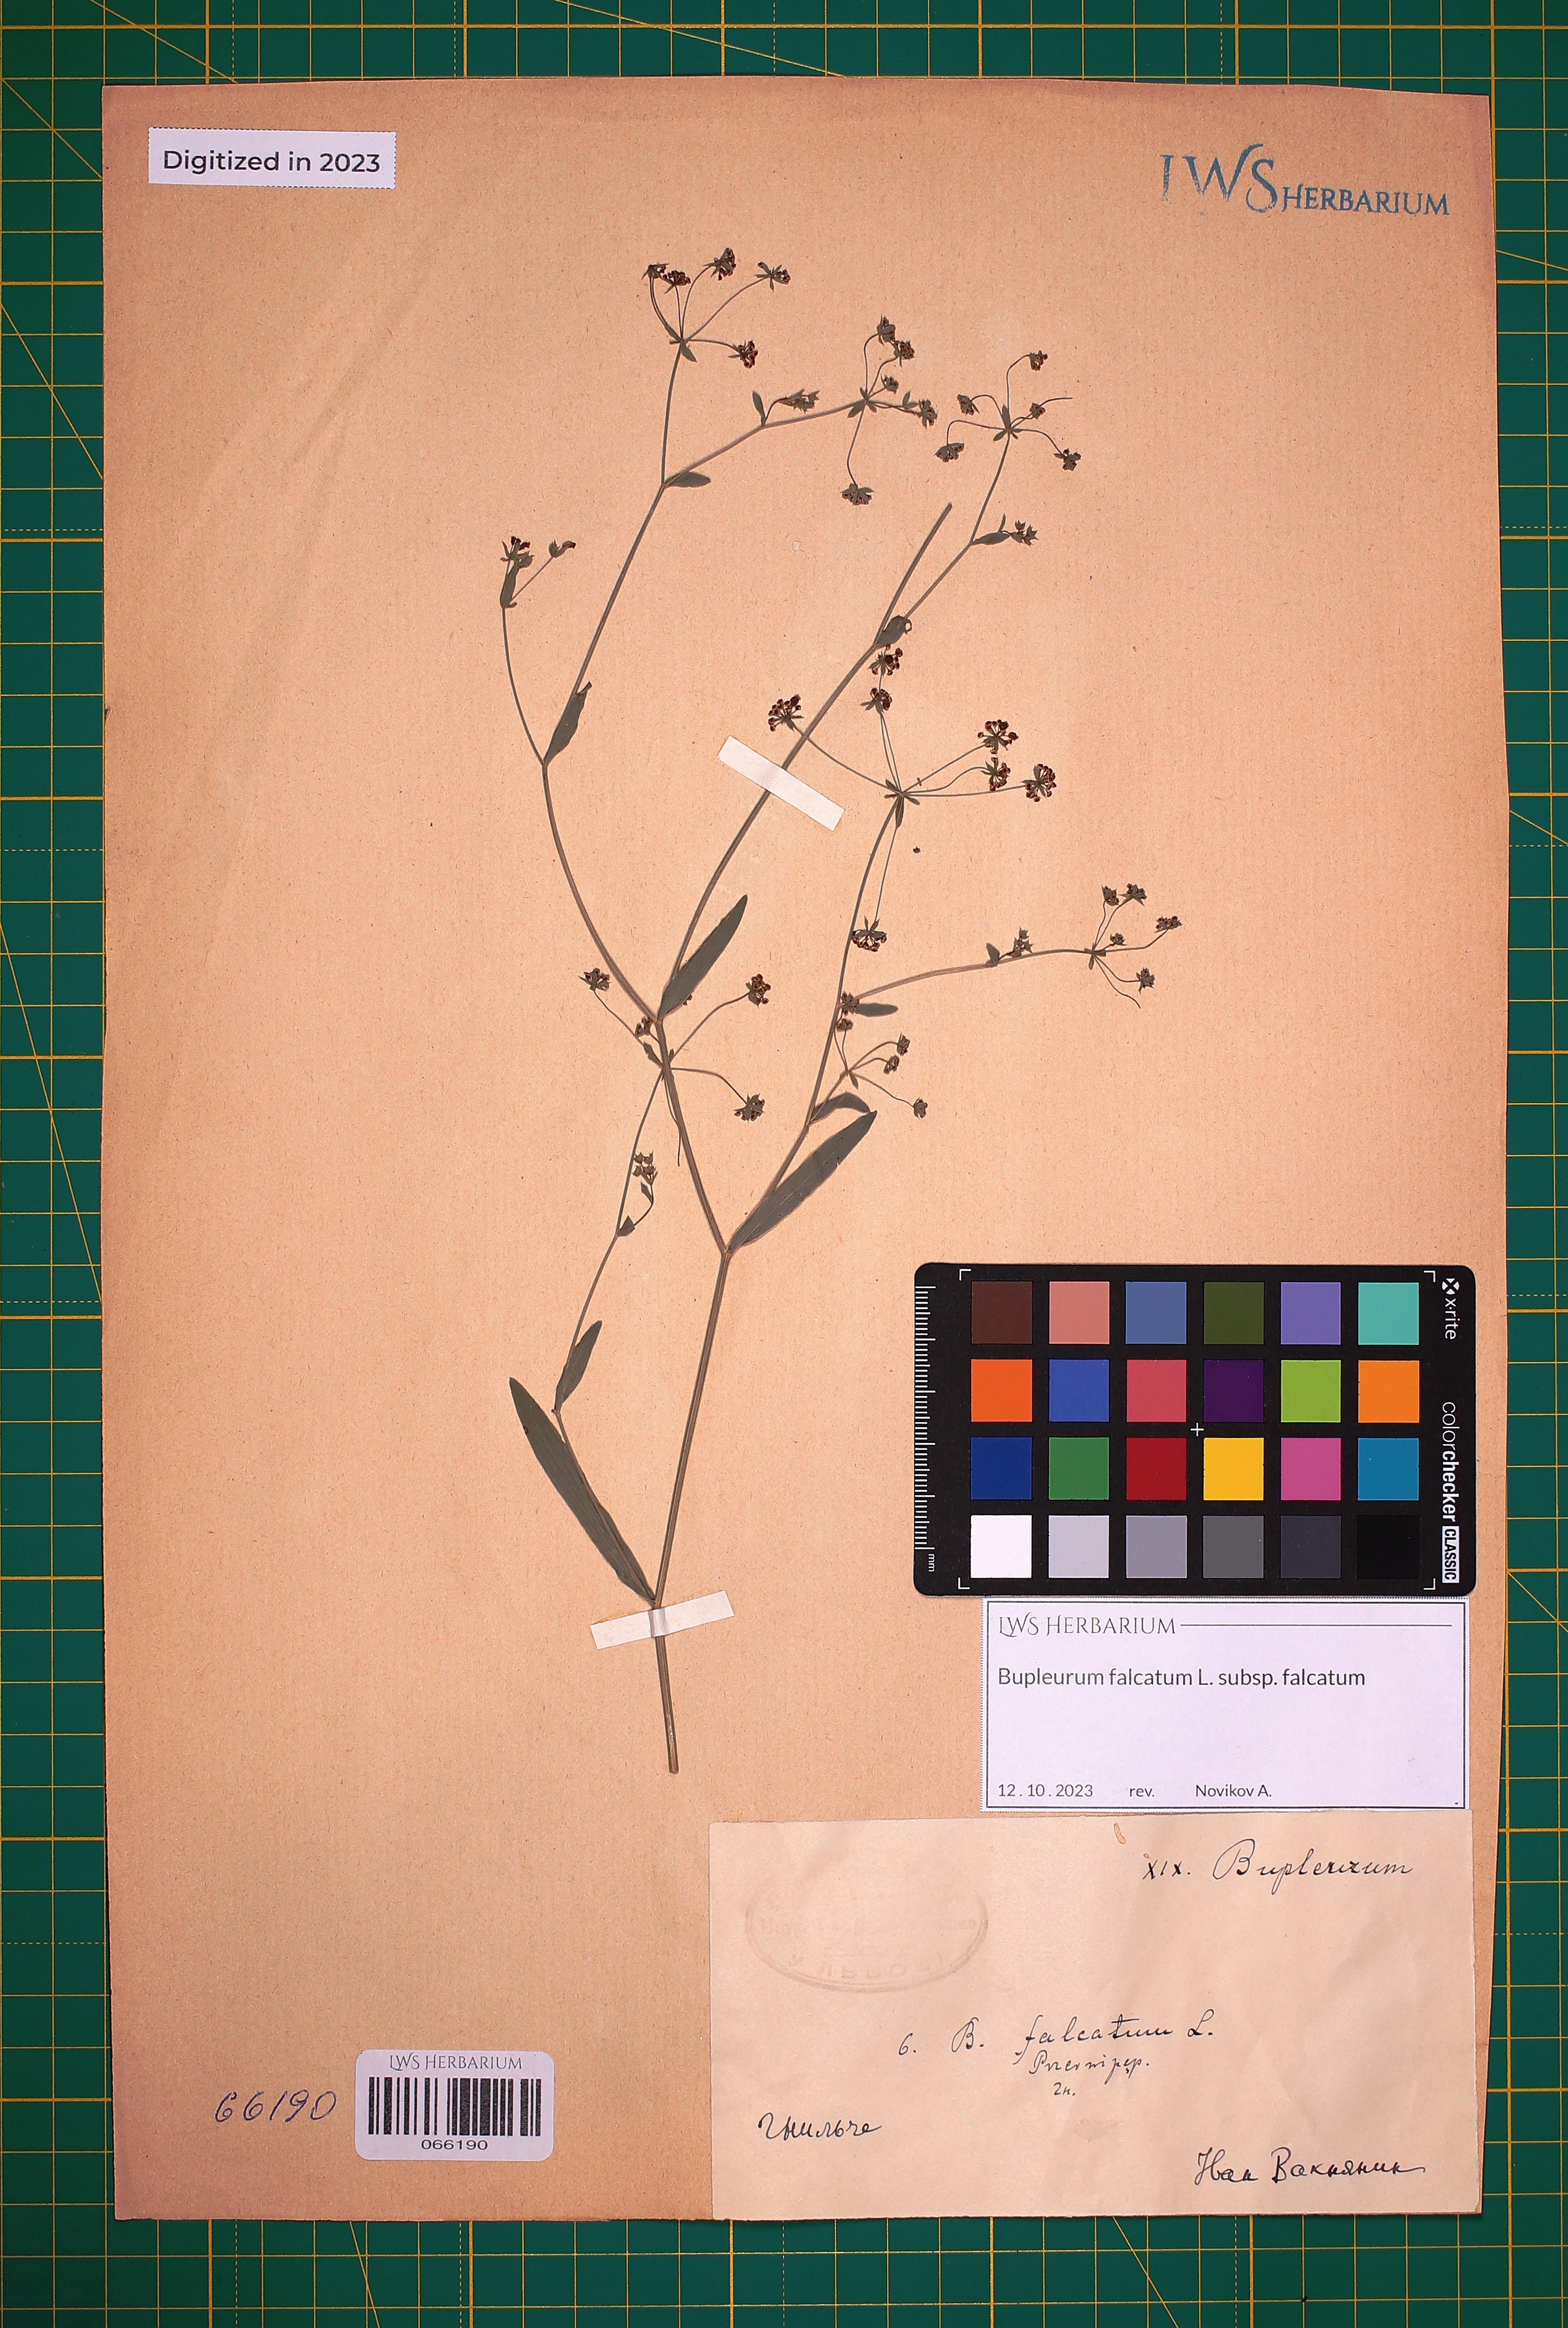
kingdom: Plantae
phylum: Tracheophyta
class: Magnoliopsida
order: Apiales
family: Apiaceae
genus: Bupleurum
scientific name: Bupleurum falcatum
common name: Sickle-leaved hare's-ear
